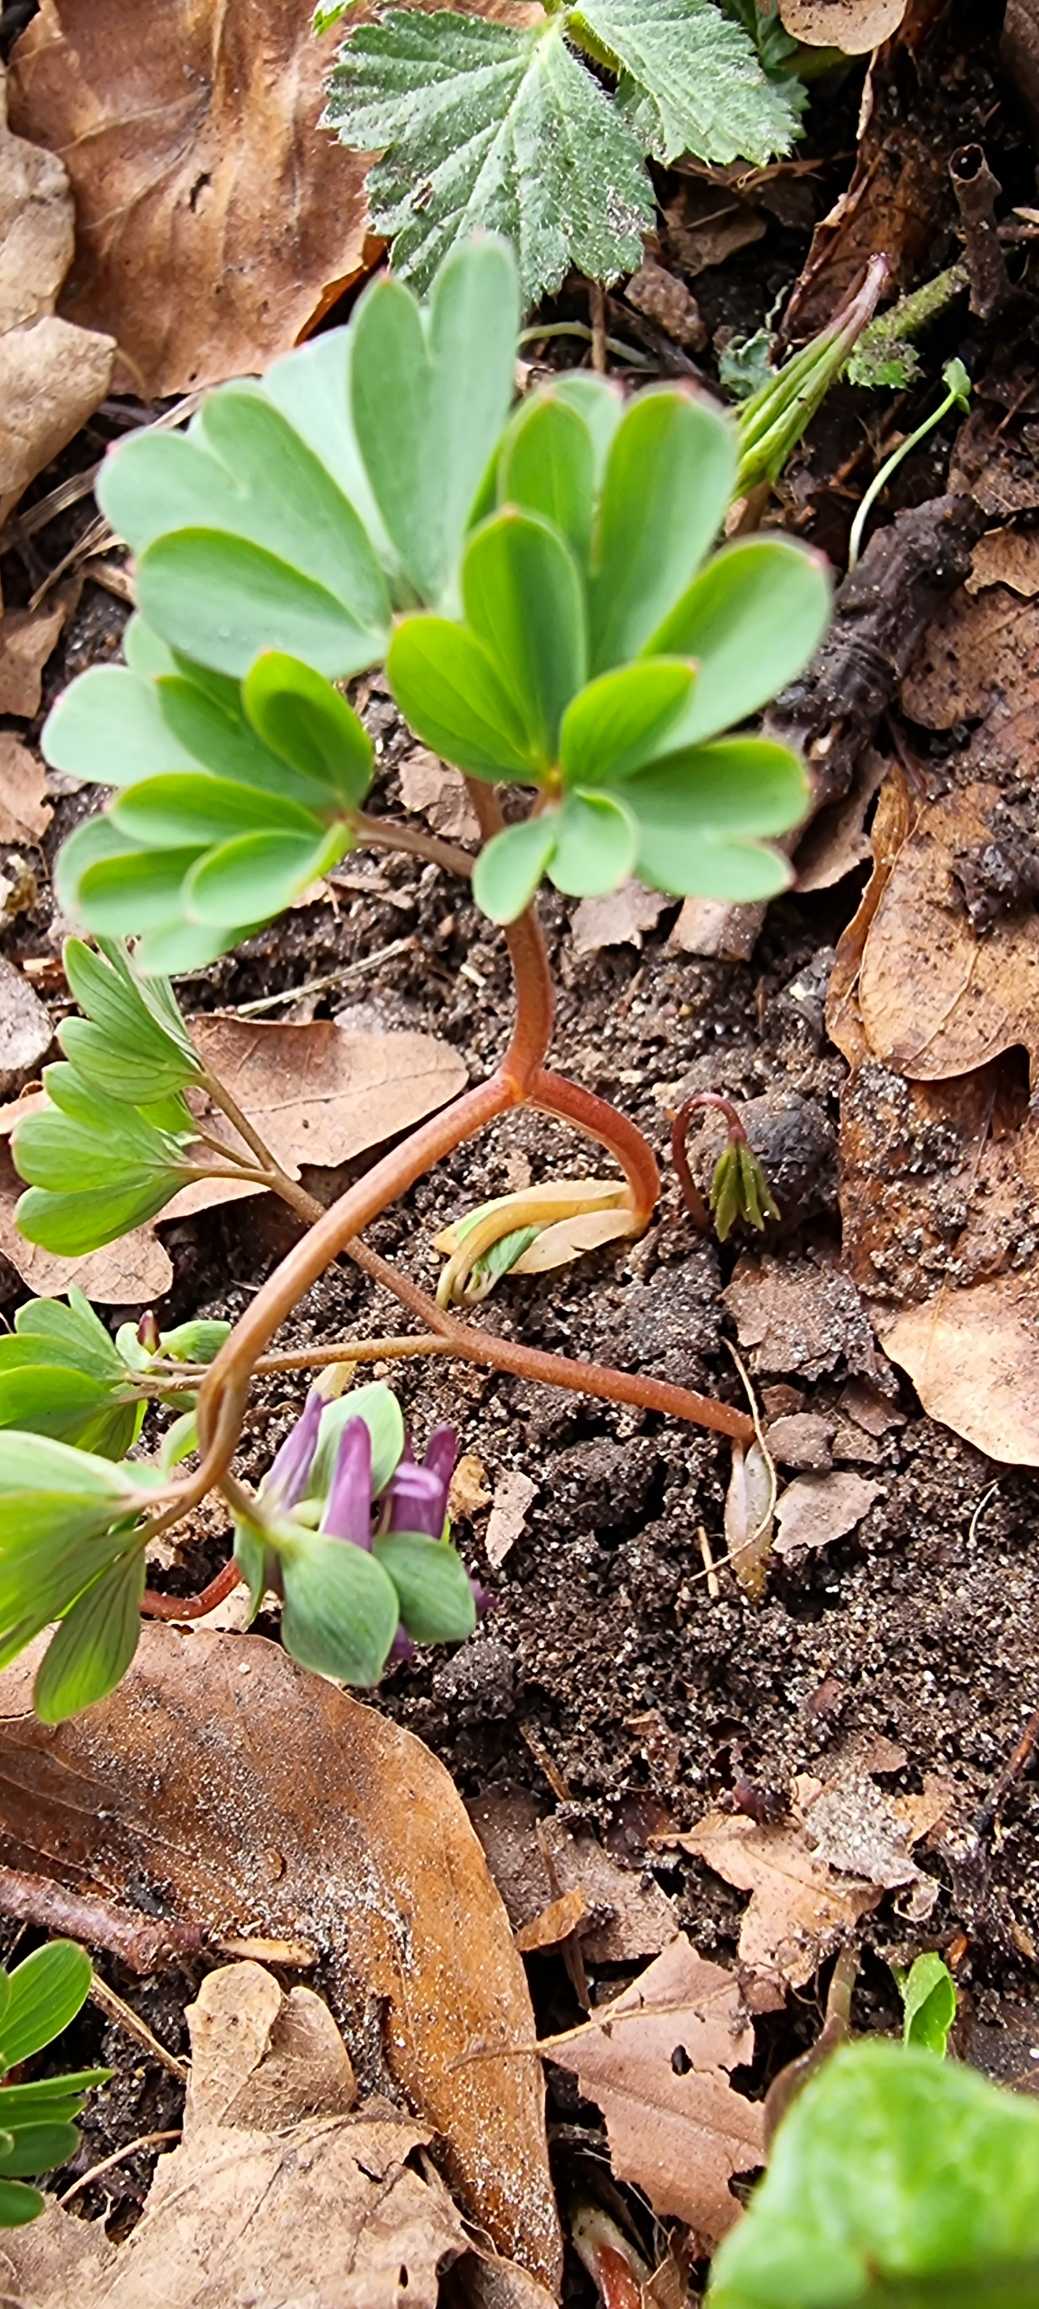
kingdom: Plantae
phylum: Tracheophyta
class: Magnoliopsida
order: Ranunculales
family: Papaveraceae
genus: Corydalis
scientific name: Corydalis intermedia
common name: Liden lærkespore
